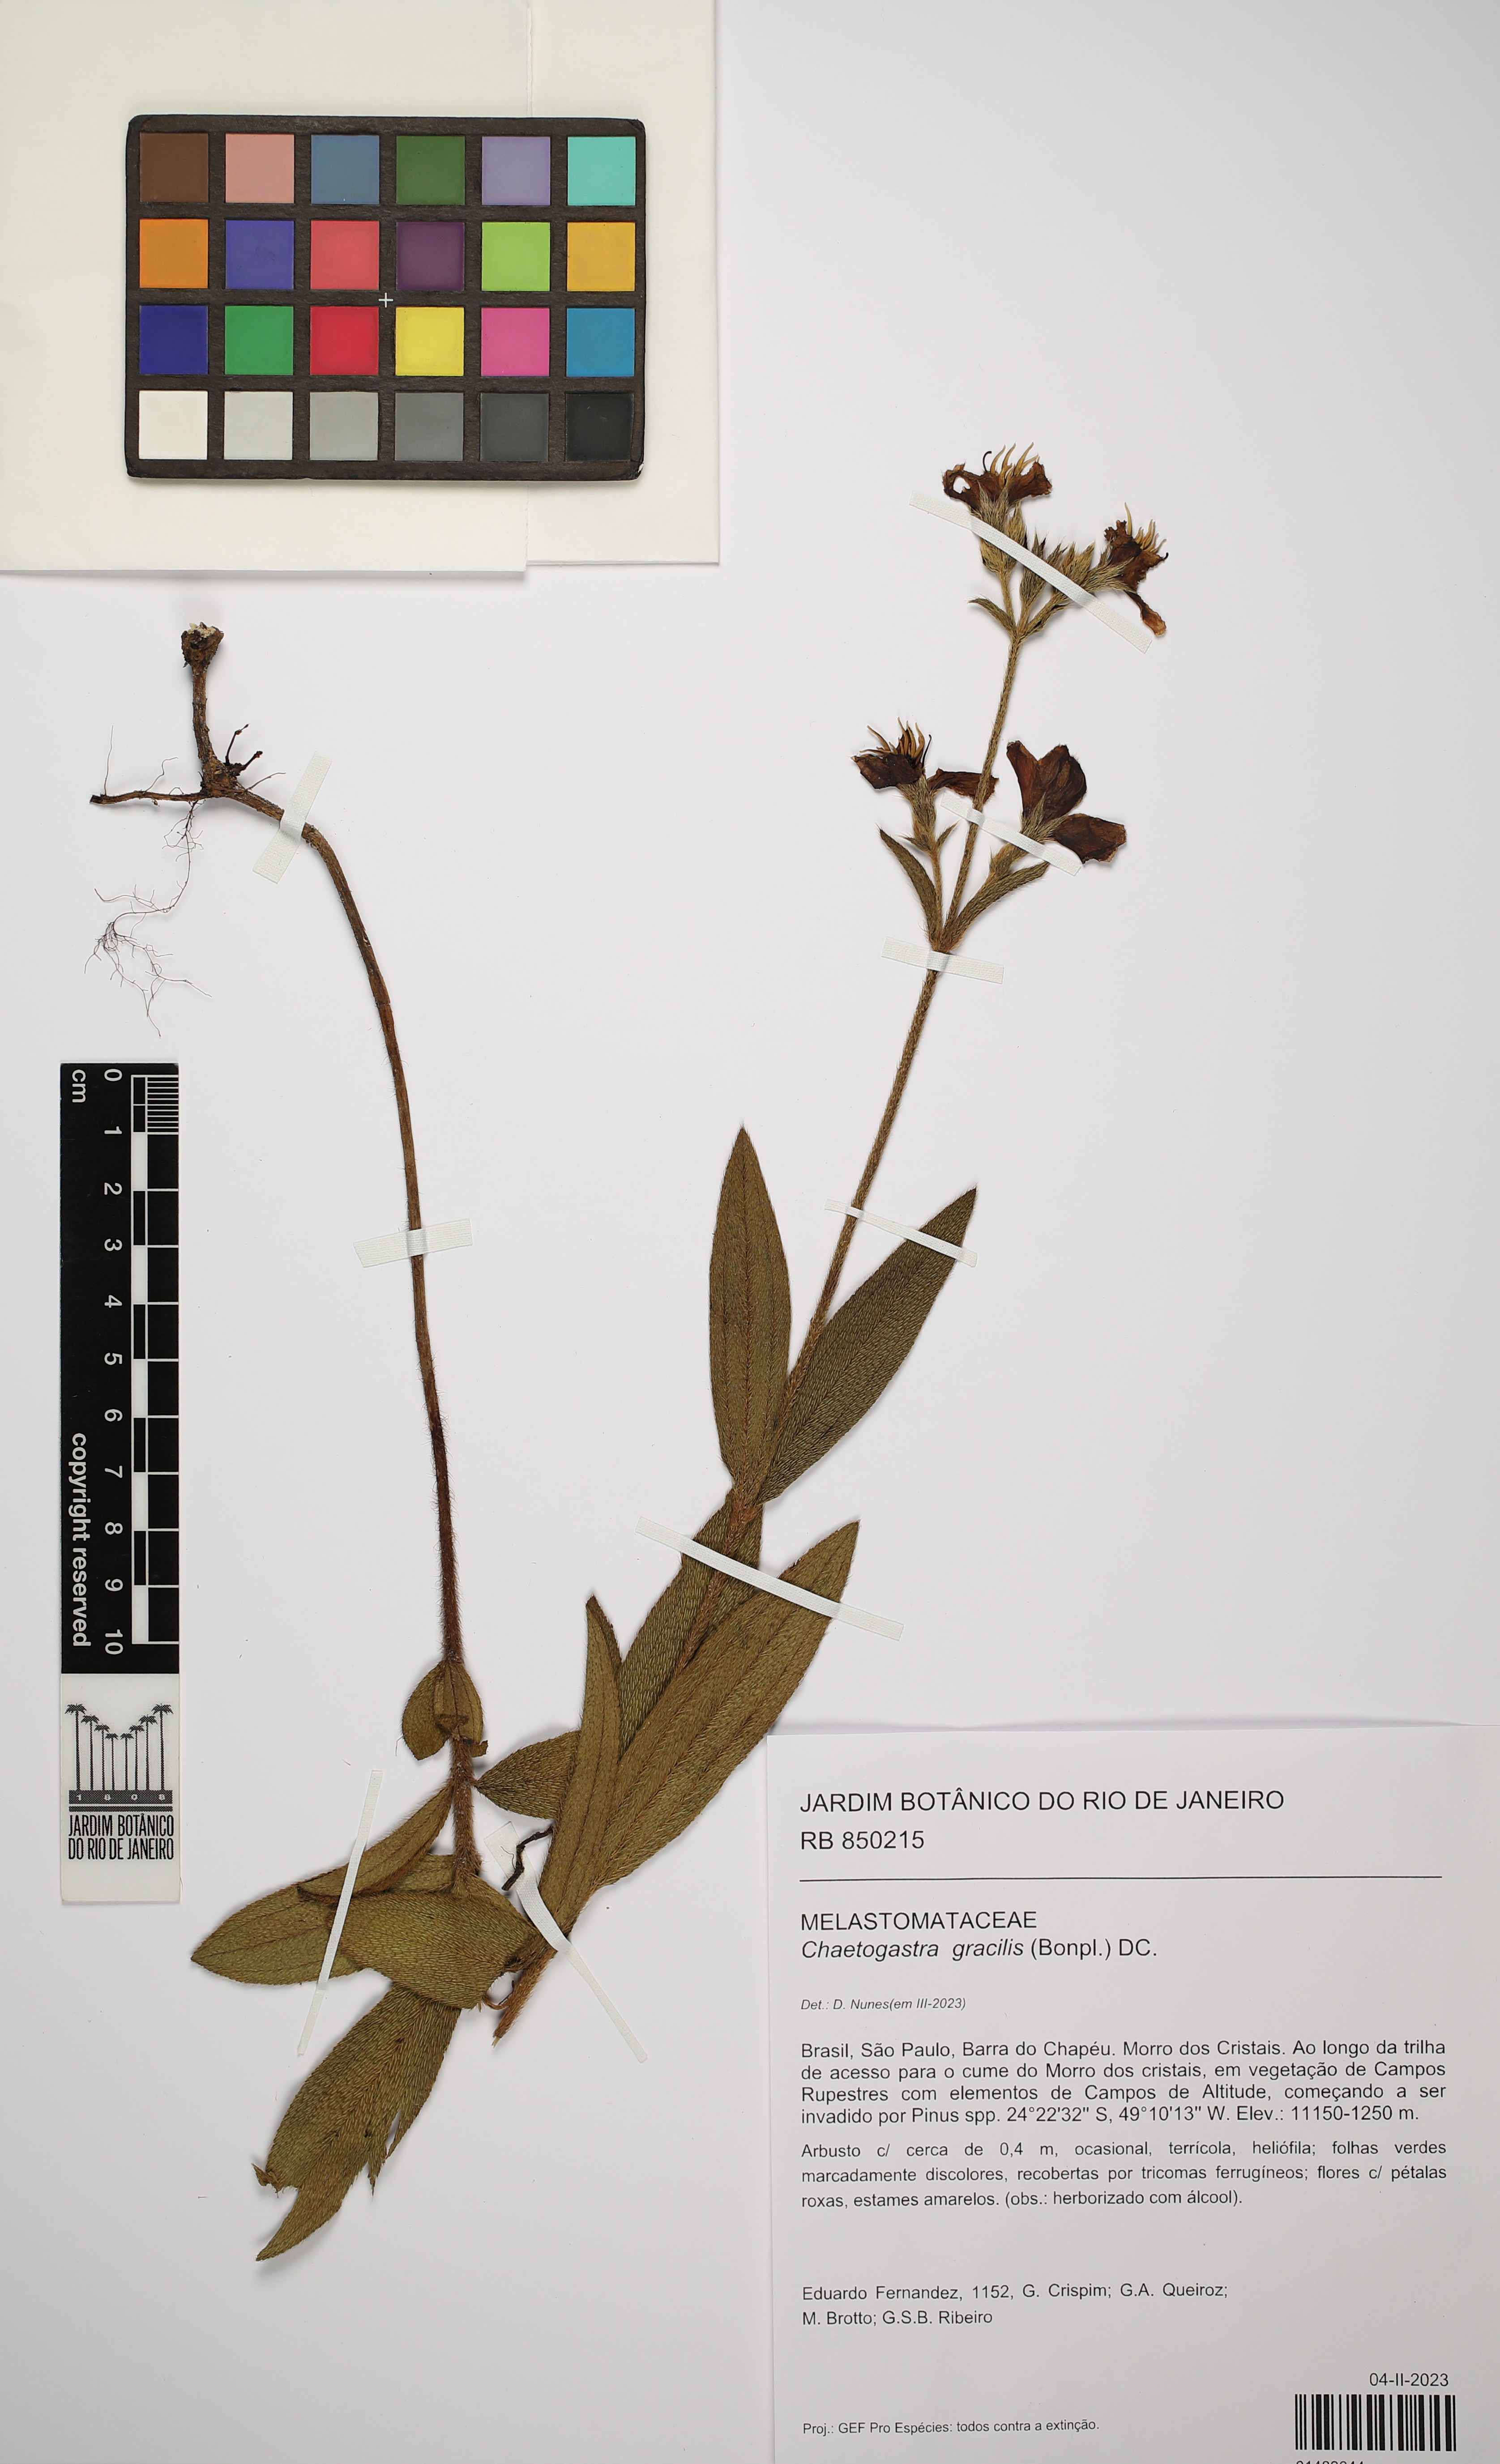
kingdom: Plantae
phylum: Tracheophyta
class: Magnoliopsida
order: Myrtales
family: Melastomataceae
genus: Chaetogastra
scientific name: Chaetogastra gracilis
